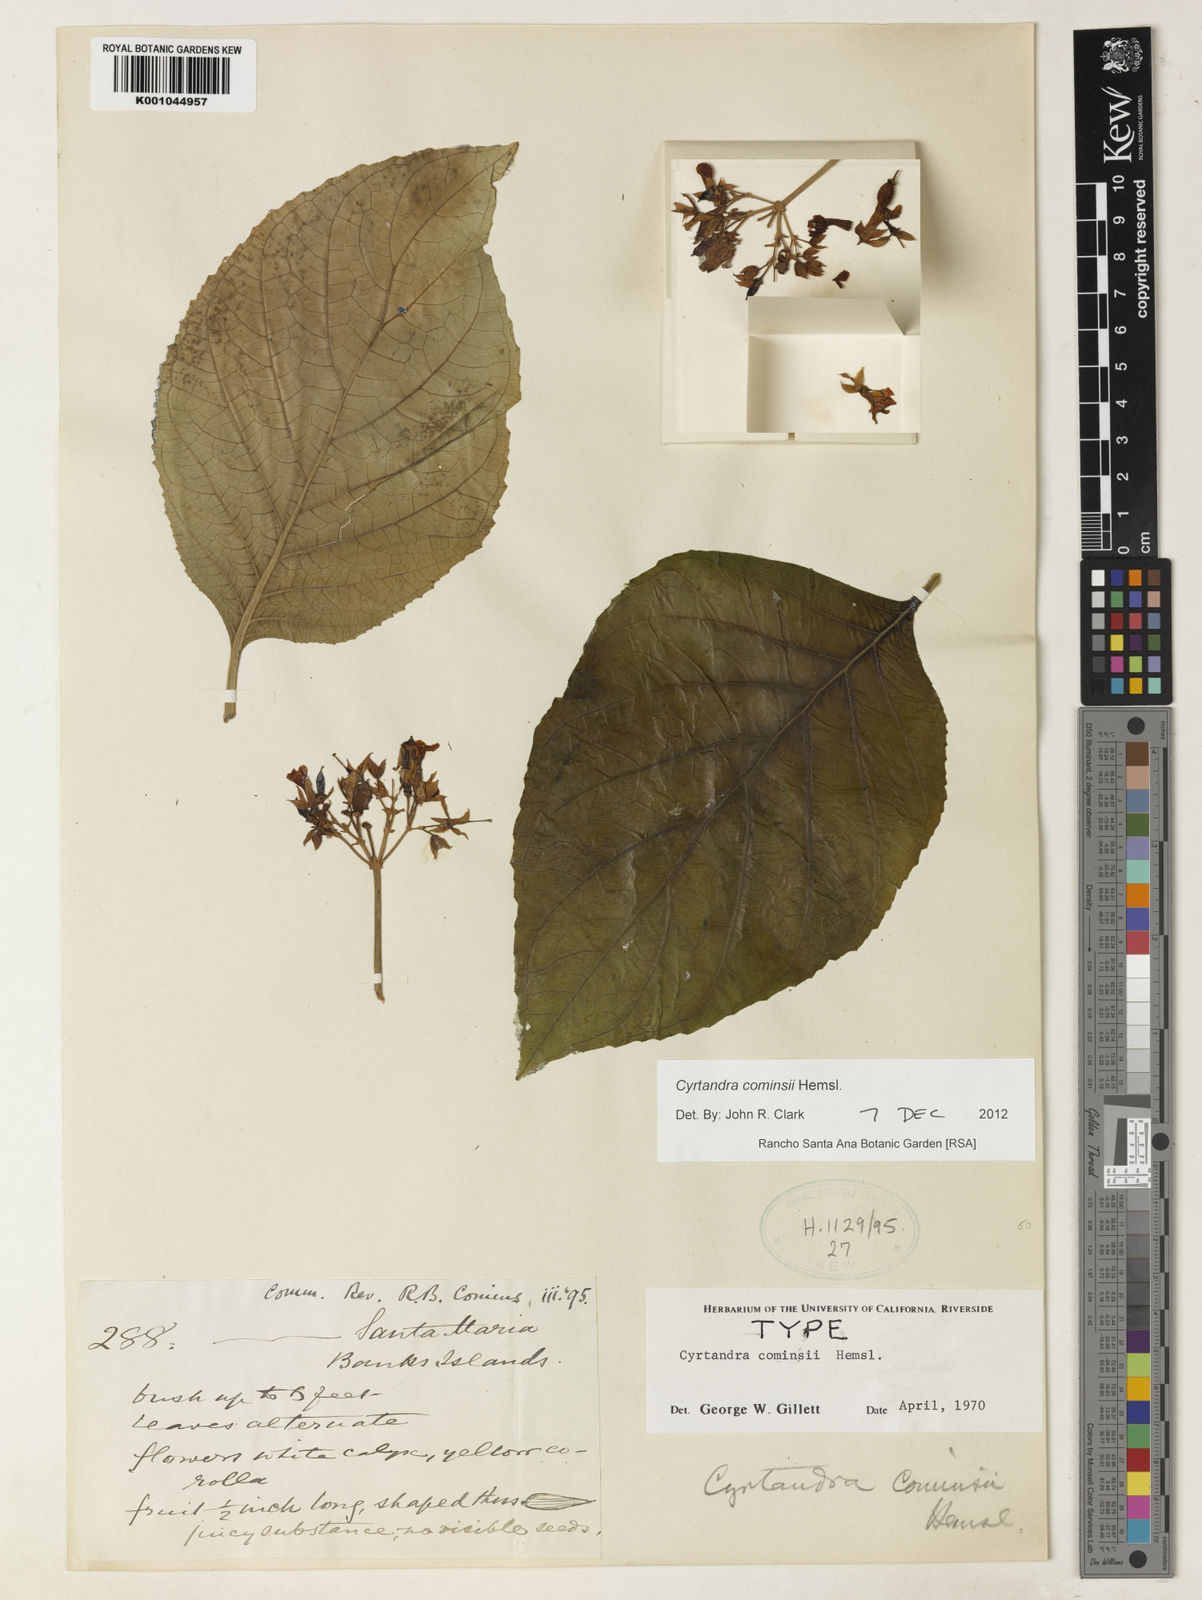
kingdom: Plantae
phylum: Tracheophyta
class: Magnoliopsida
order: Lamiales
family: Gesneriaceae
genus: Cyrtandra
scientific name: Cyrtandra cominsii
